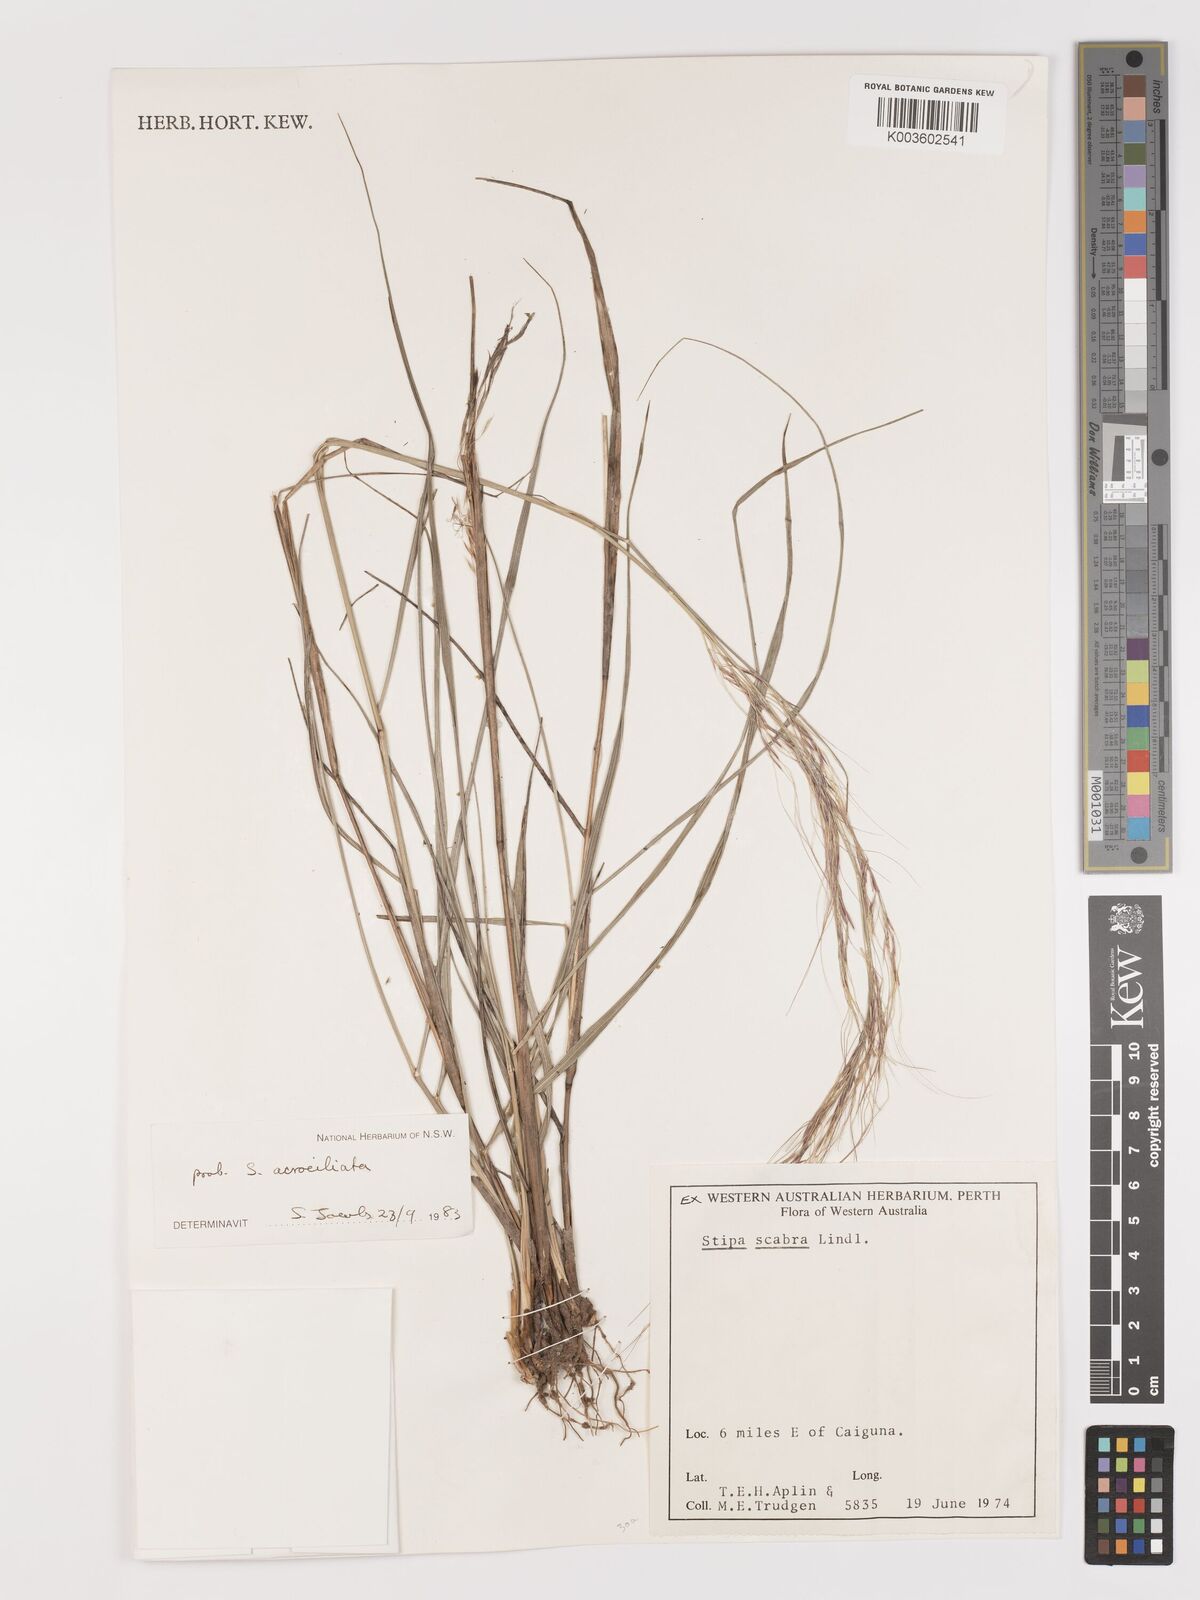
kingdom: Plantae
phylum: Tracheophyta
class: Liliopsida
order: Poales
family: Poaceae
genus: Austrostipa
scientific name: Austrostipa acrociliata
